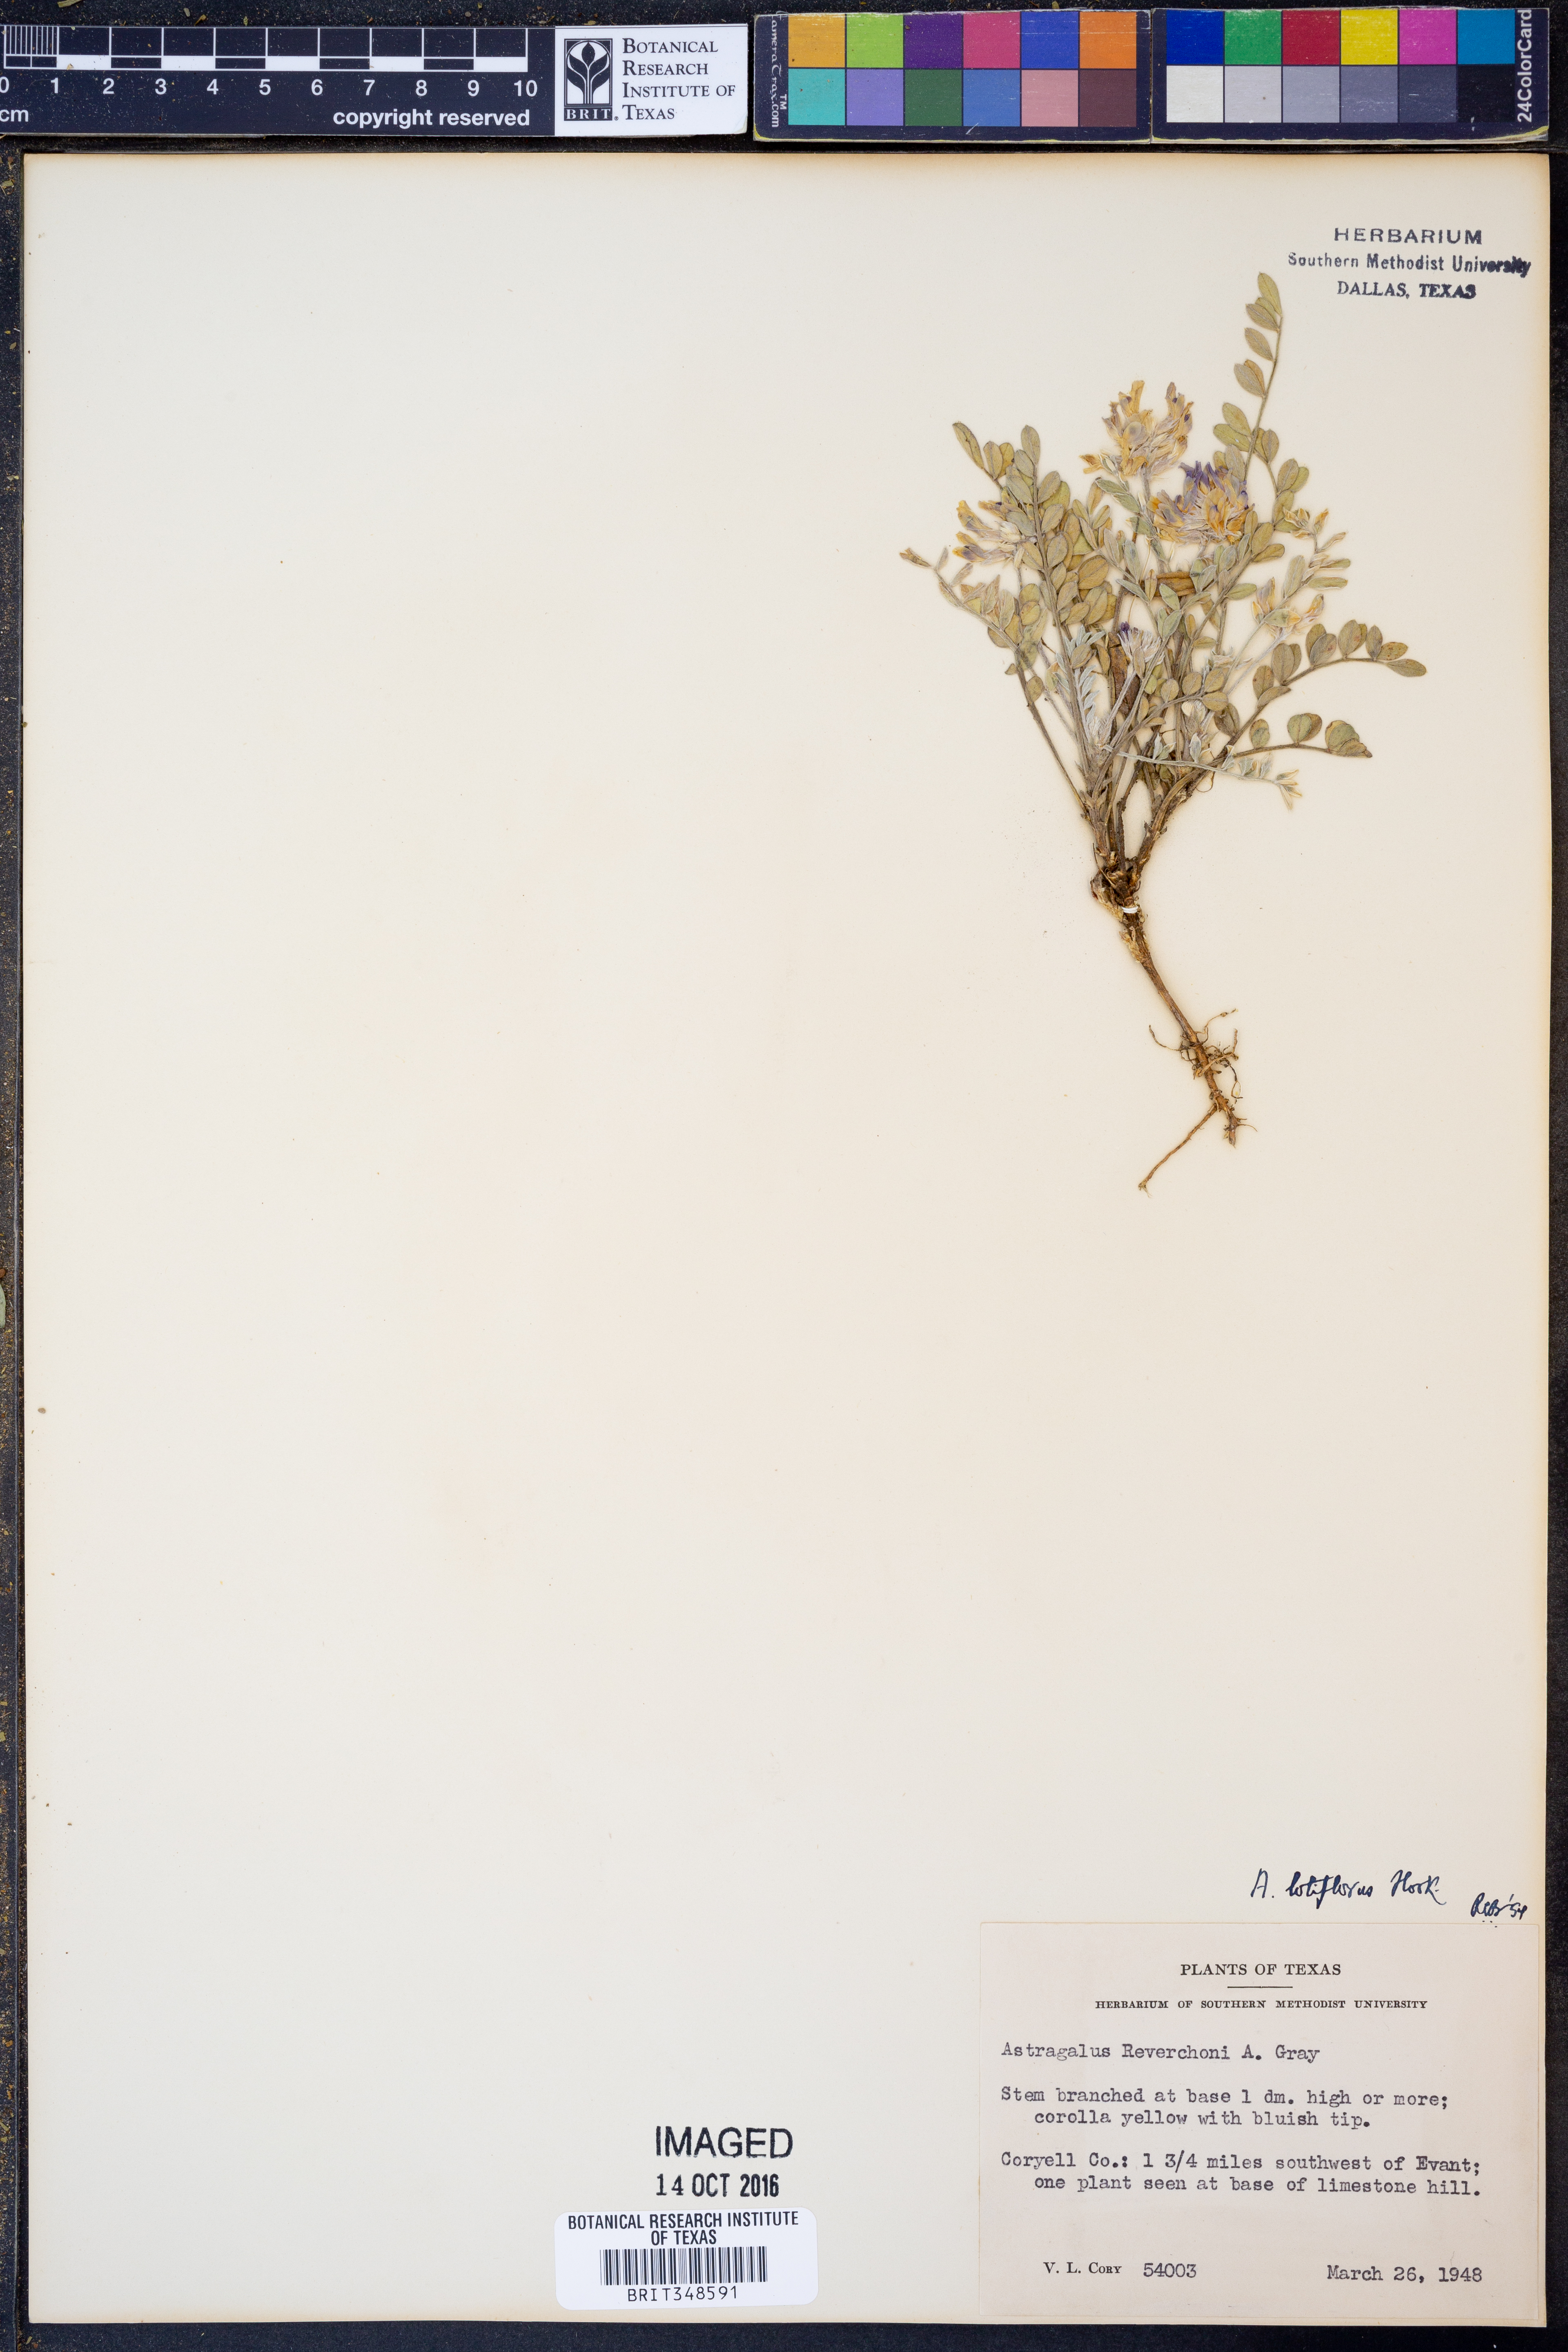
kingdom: Plantae
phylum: Tracheophyta
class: Magnoliopsida
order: Fabales
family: Fabaceae
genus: Astragalus
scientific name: Astragalus lotiflorus
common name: Lotus milk-vetch
